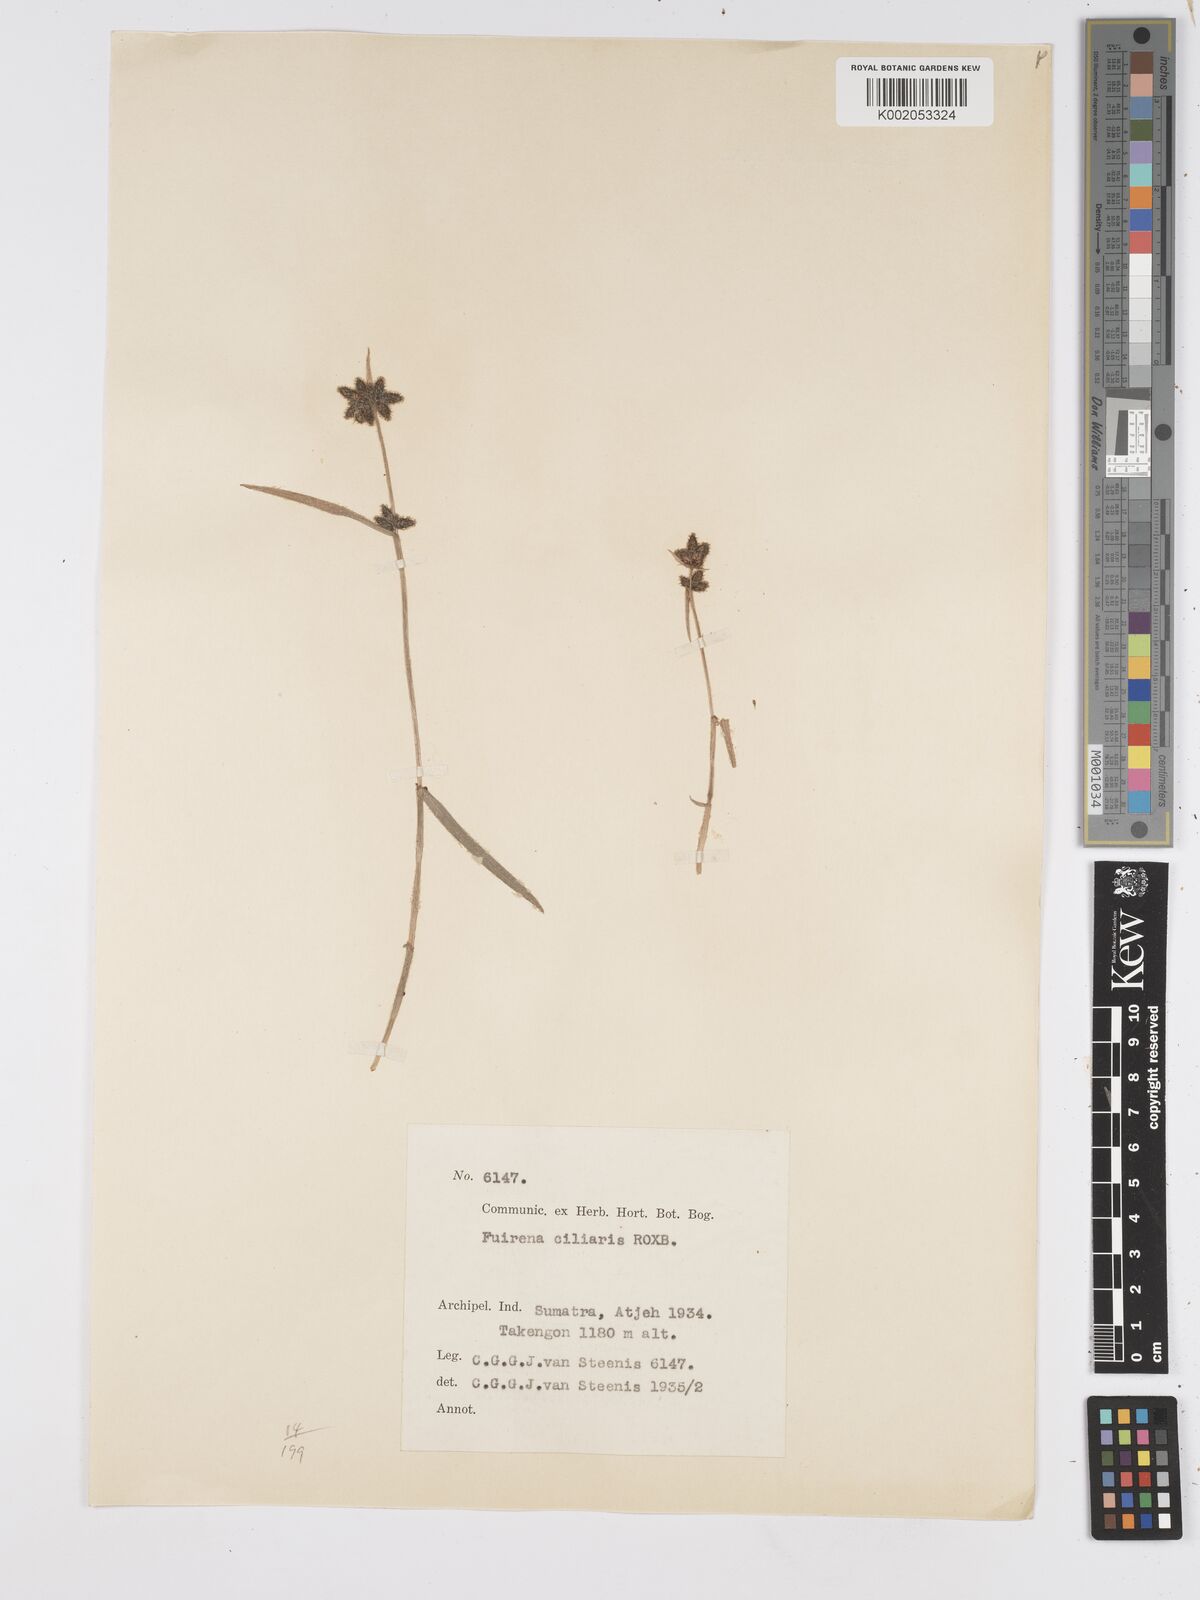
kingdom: Plantae
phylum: Tracheophyta
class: Liliopsida
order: Poales
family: Cyperaceae
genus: Fuirena
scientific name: Fuirena ciliaris
